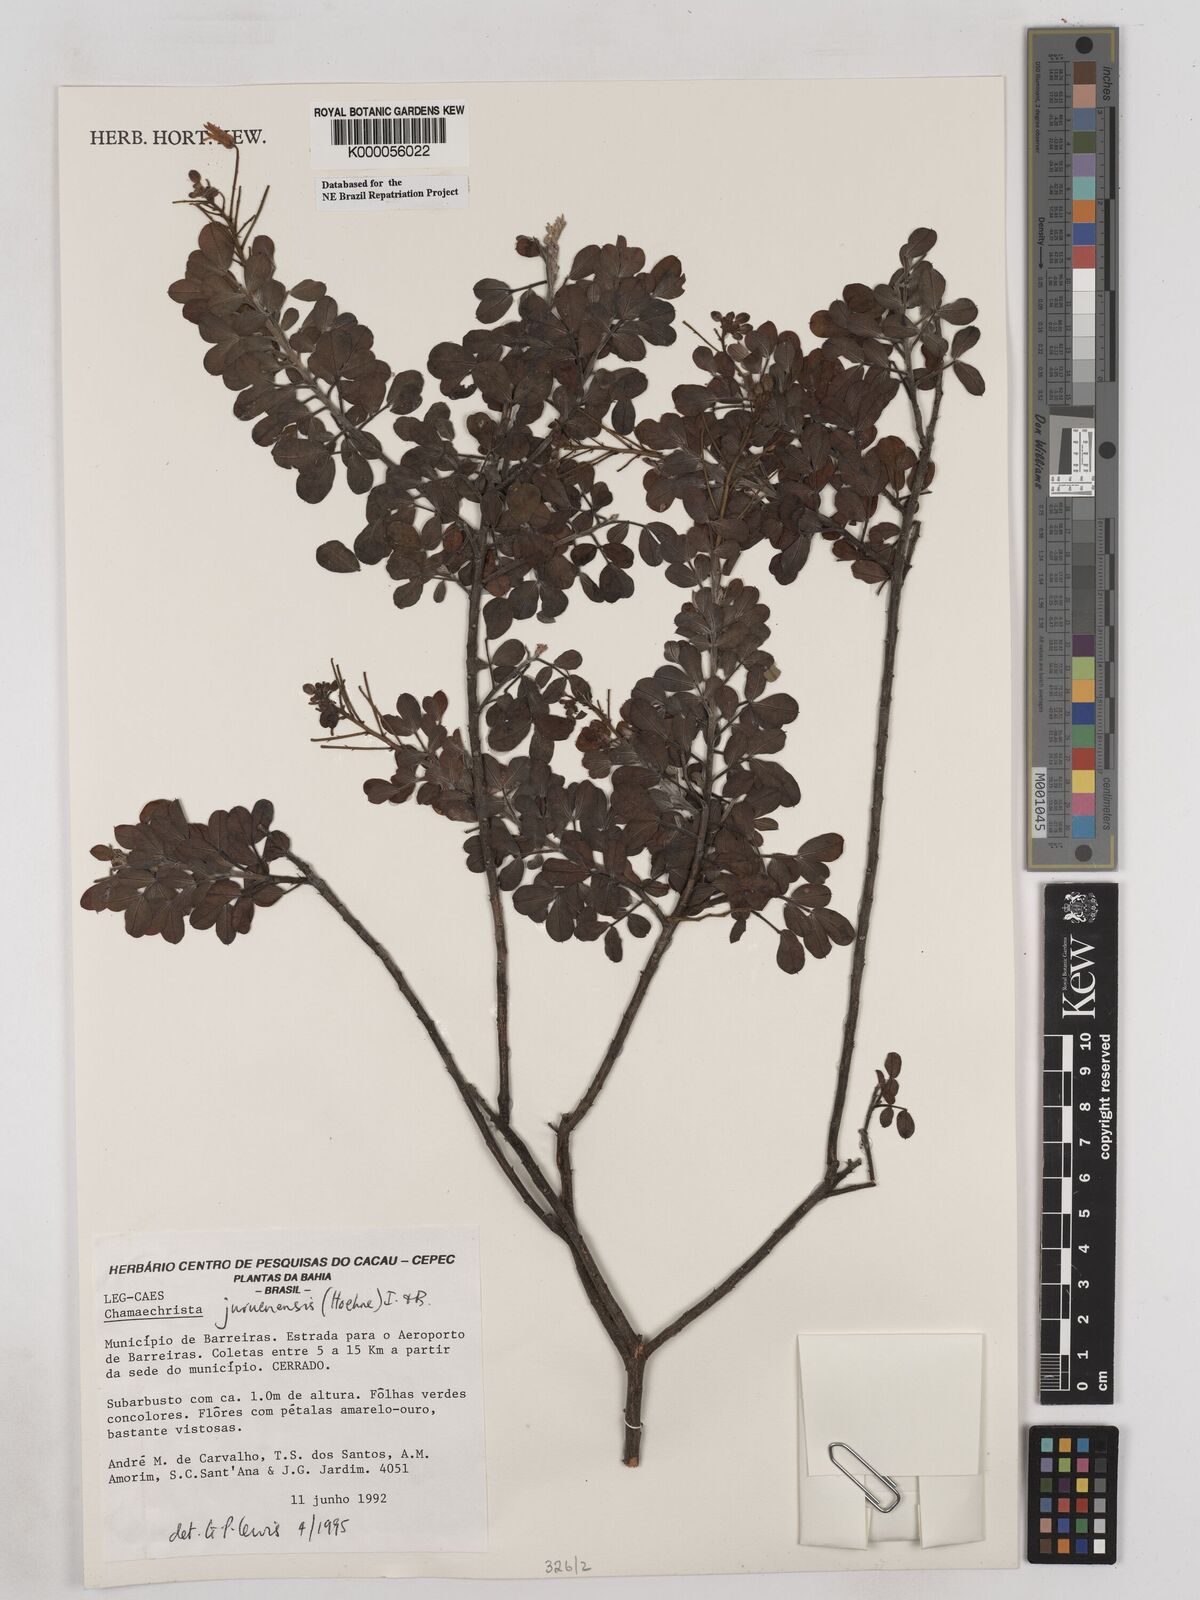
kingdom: Plantae
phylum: Tracheophyta
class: Magnoliopsida
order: Fabales
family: Fabaceae
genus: Chamaecrista
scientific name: Chamaecrista juruenensis
